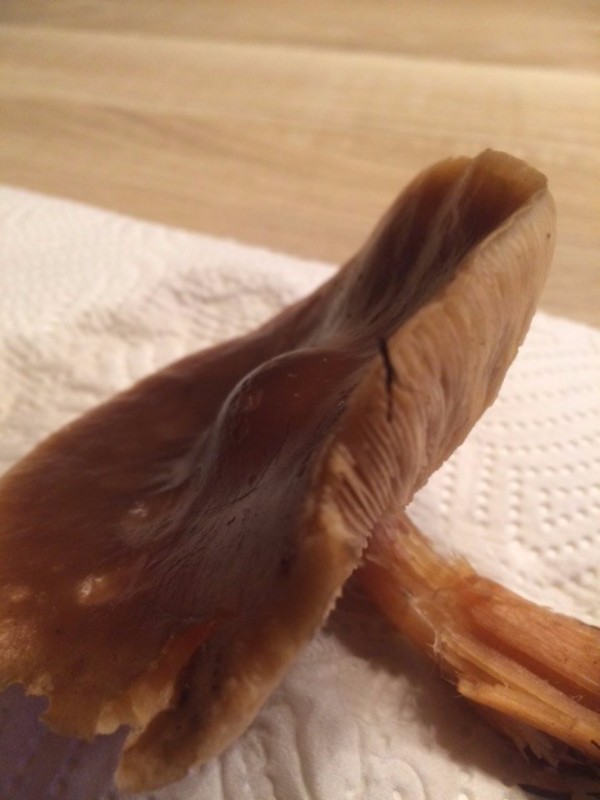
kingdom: Fungi
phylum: Basidiomycota
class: Agaricomycetes
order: Agaricales
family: Tricholomataceae
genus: Melanoleuca
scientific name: Melanoleuca cognata
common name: gyldengrå munkehat
